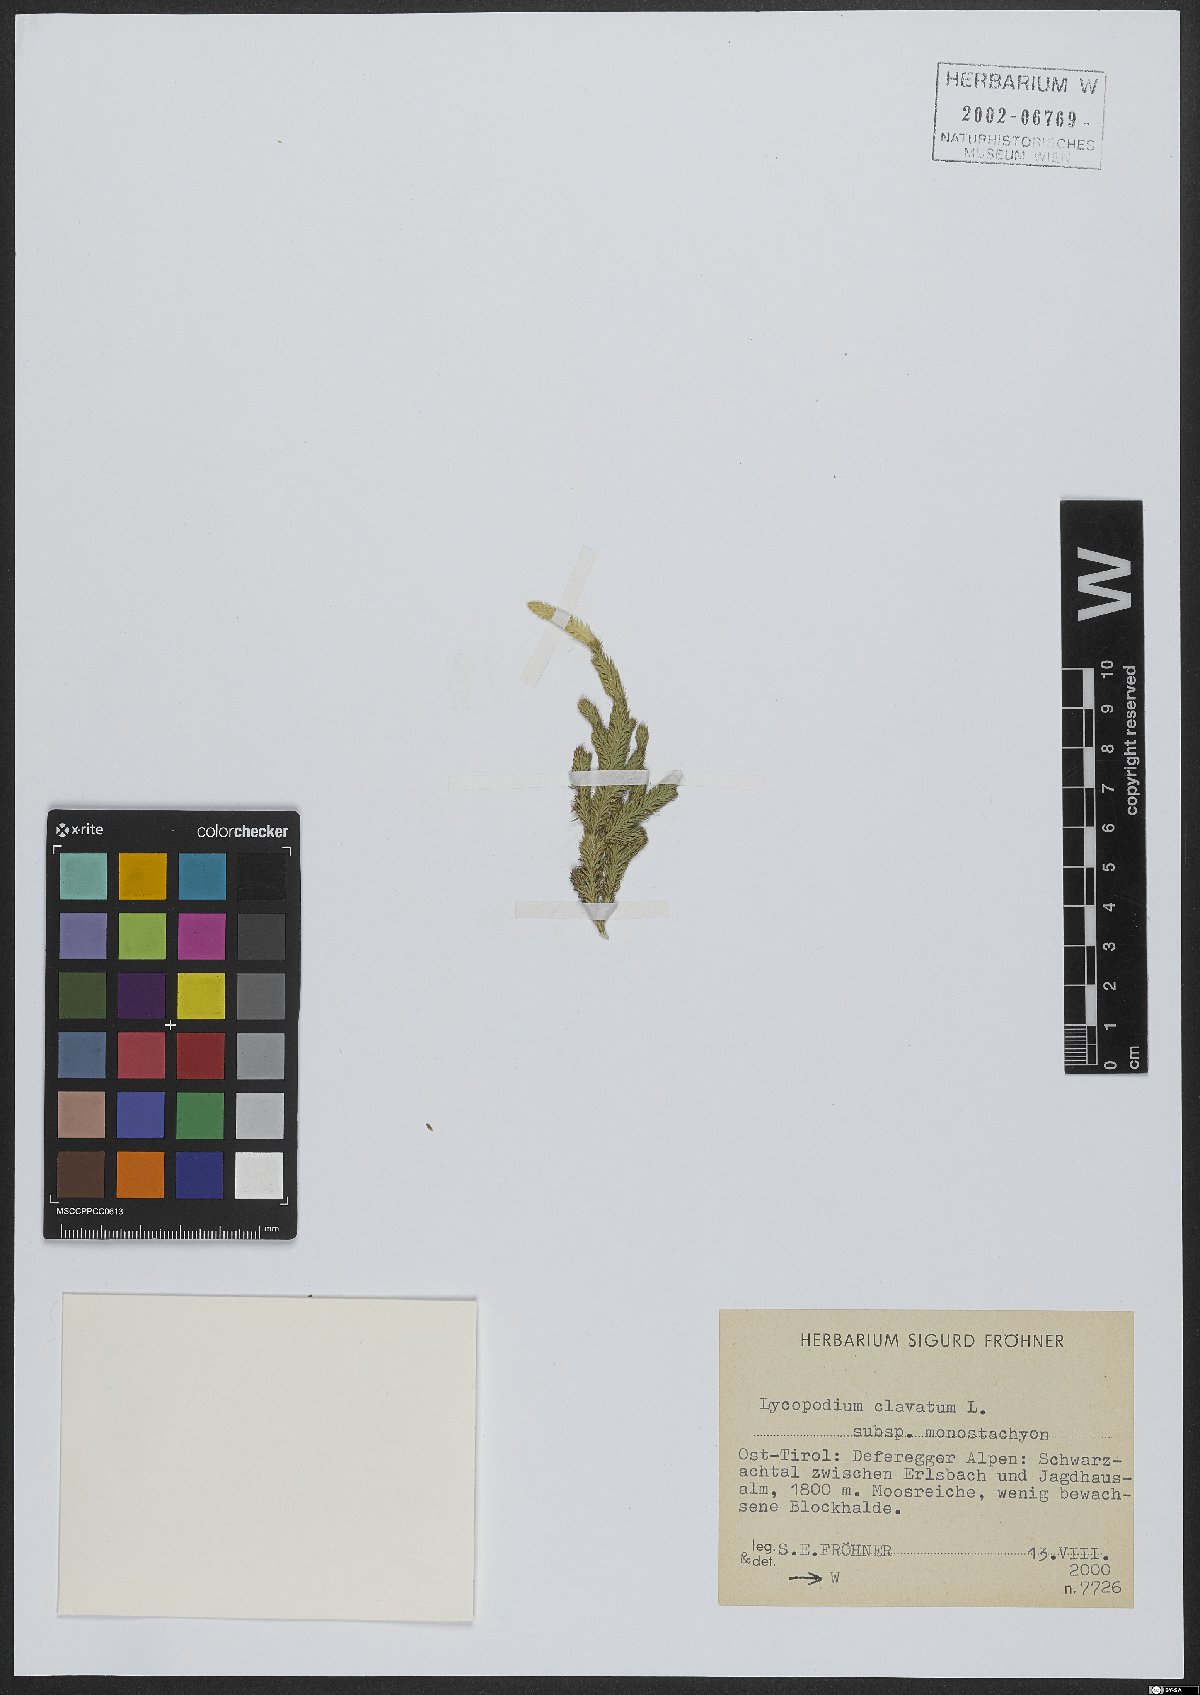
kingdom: Plantae
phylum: Tracheophyta
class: Lycopodiopsida
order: Lycopodiales
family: Lycopodiaceae
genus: Lycopodium
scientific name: Lycopodium lagopus
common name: One-cone clubmoss
